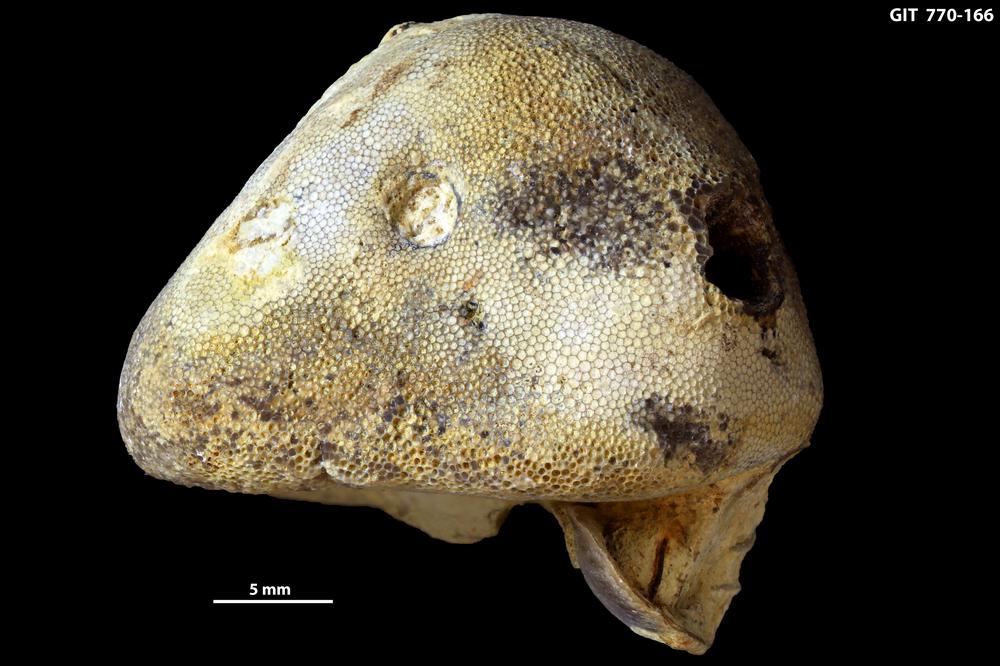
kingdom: Animalia
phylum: Bryozoa
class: Stenolaemata
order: Trepostomatida
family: Monticuliporidae
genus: Mesotrypa
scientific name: Mesotrypa expressa
